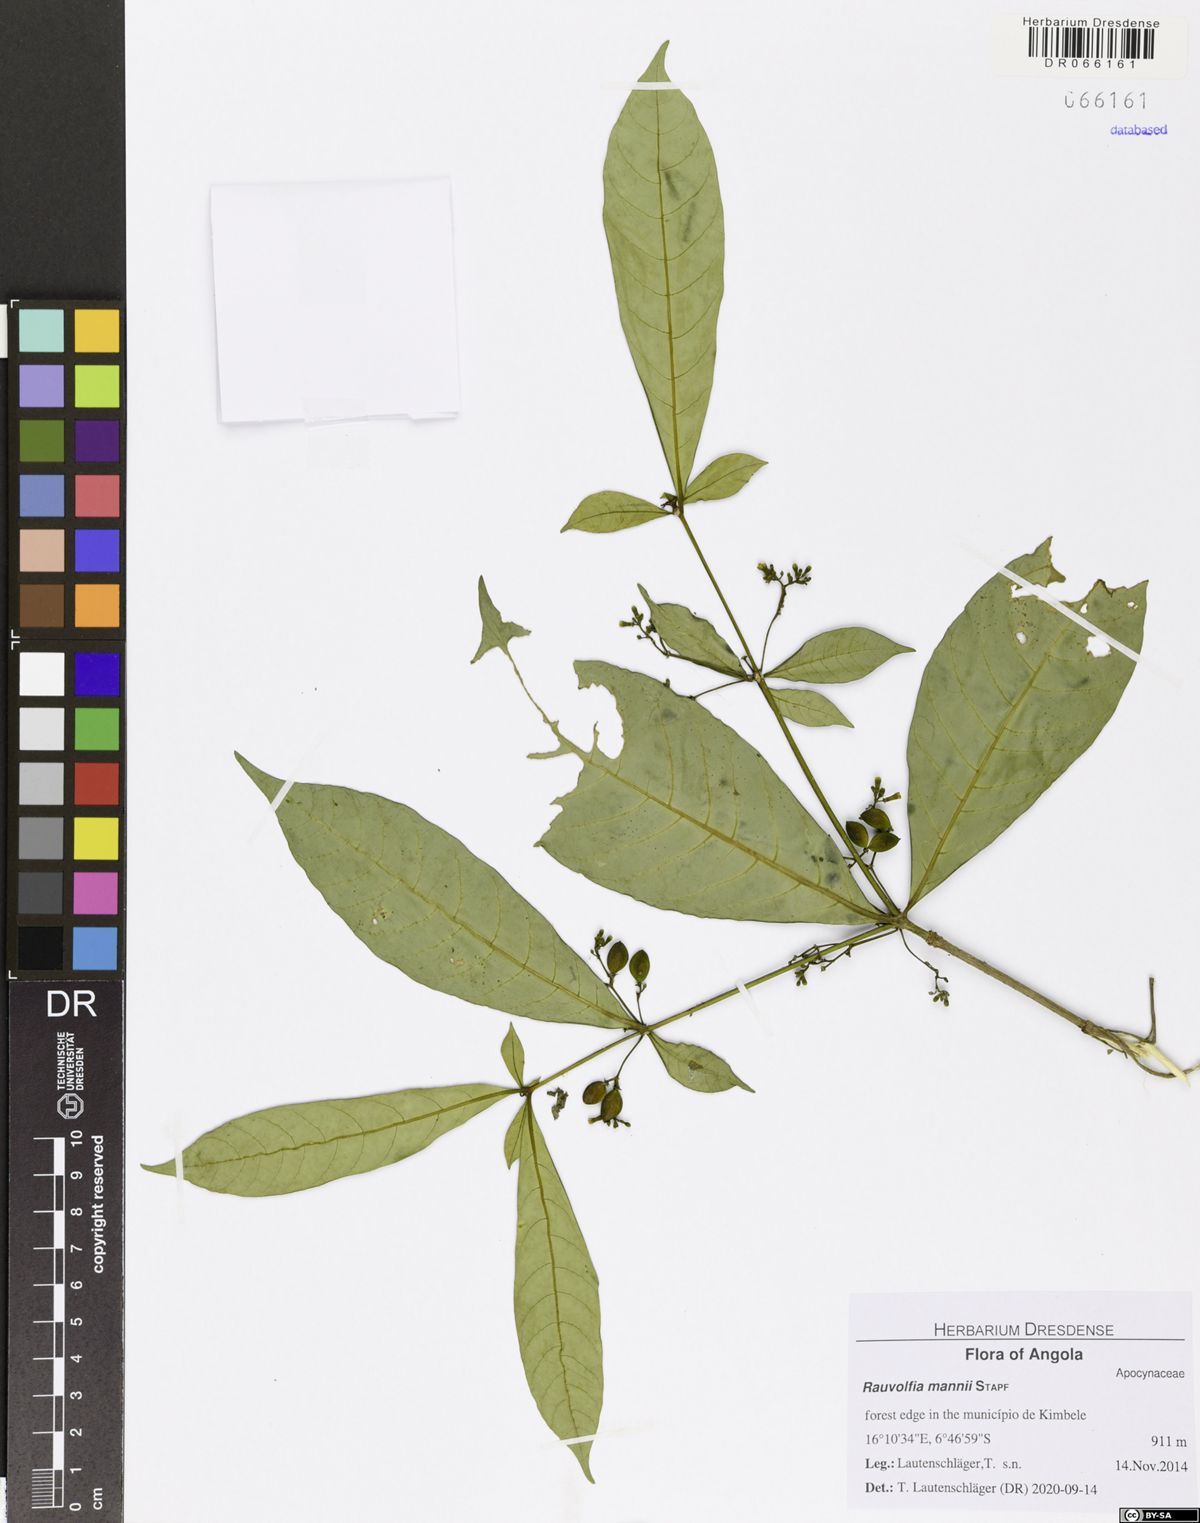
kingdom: Plantae
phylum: Tracheophyta
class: Magnoliopsida
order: Gentianales
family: Apocynaceae
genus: Rauvolfia
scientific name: Rauvolfia mannii
